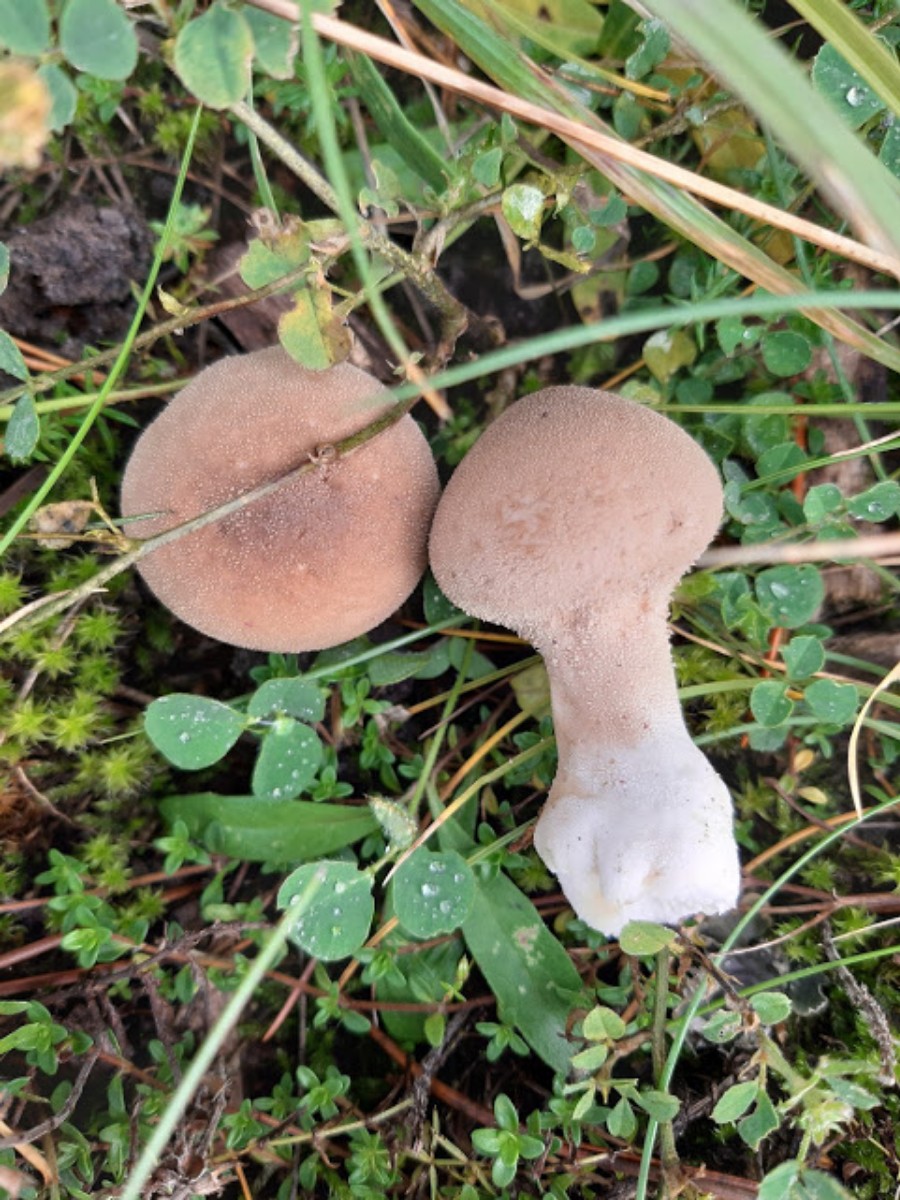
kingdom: Fungi
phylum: Basidiomycota
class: Agaricomycetes
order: Agaricales
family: Lycoperdaceae
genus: Lycoperdon
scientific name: Lycoperdon excipuliforme
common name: højstokket støvbold
